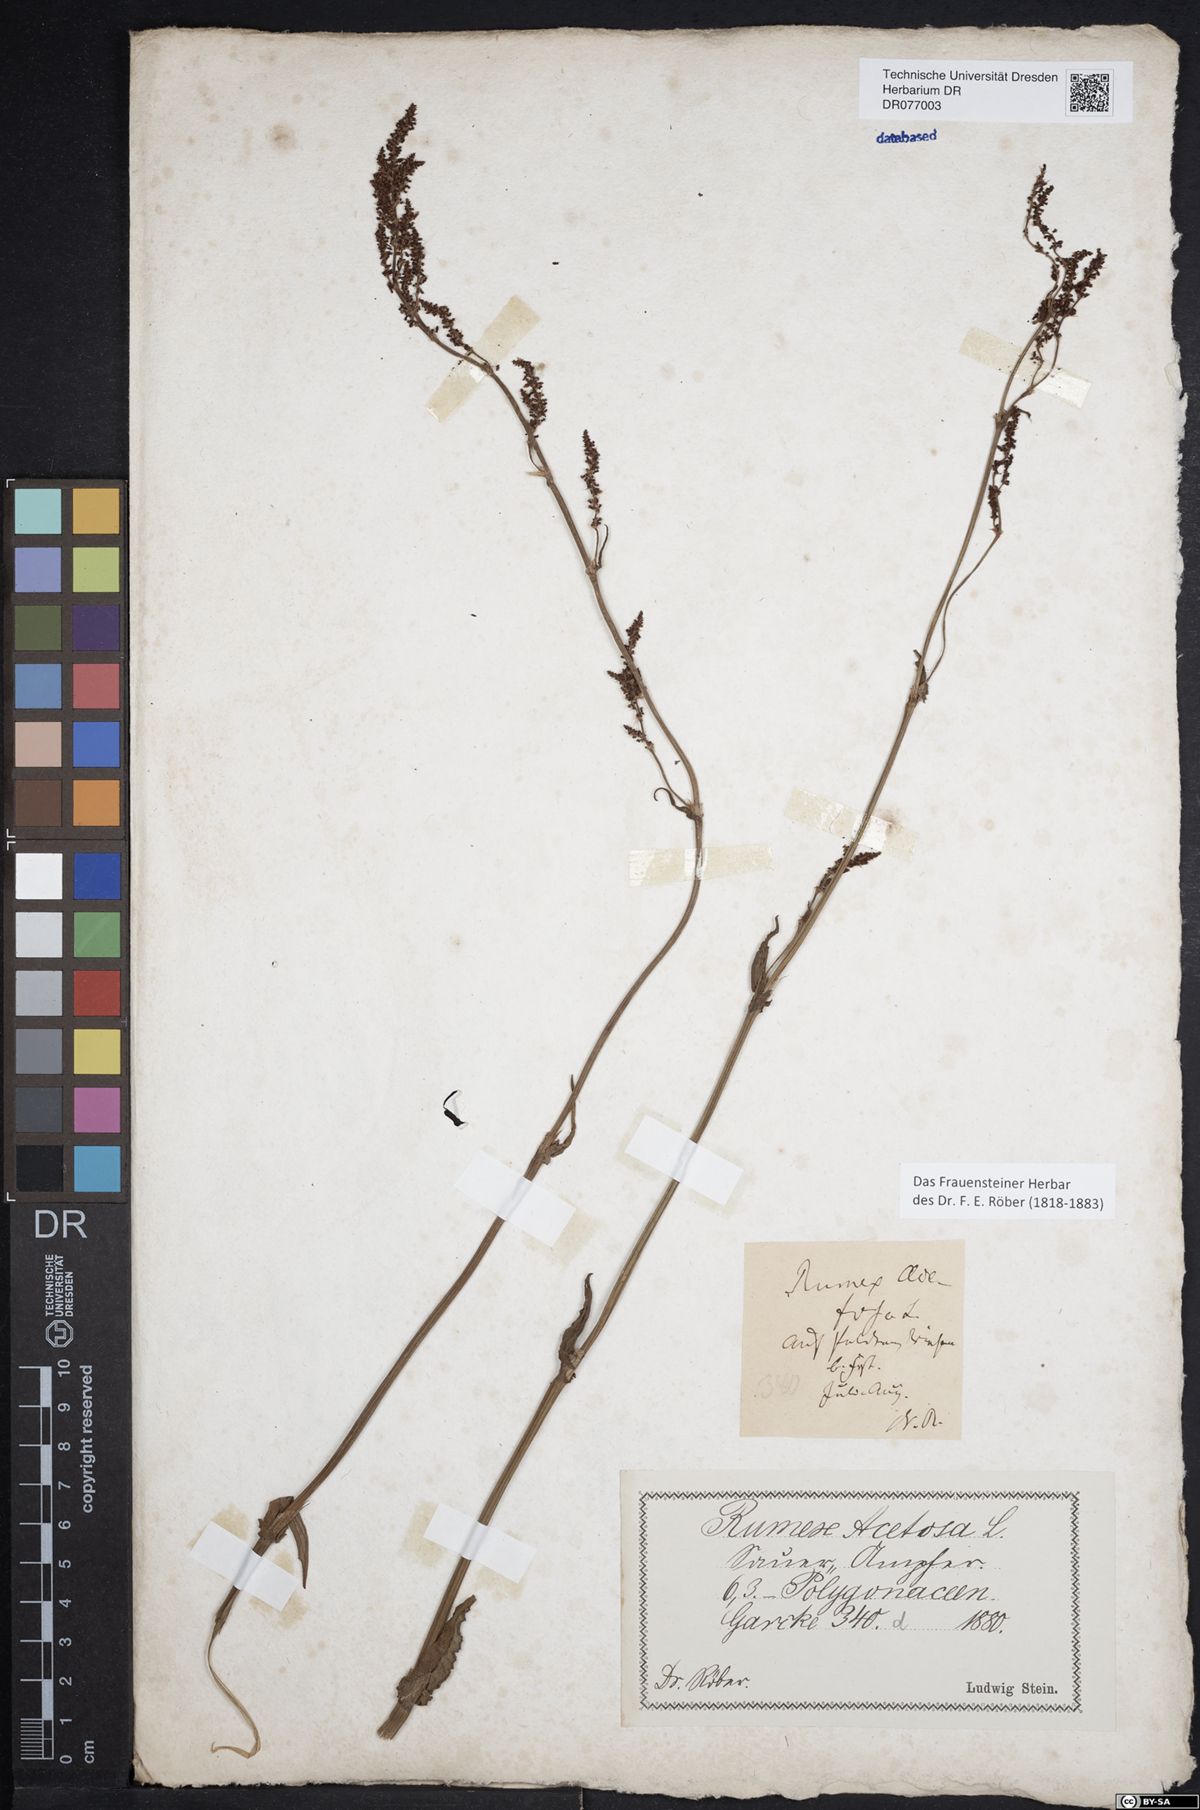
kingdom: Plantae
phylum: Tracheophyta
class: Magnoliopsida
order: Caryophyllales
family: Polygonaceae
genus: Rumex
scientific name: Rumex acetosa
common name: Garden sorrel
